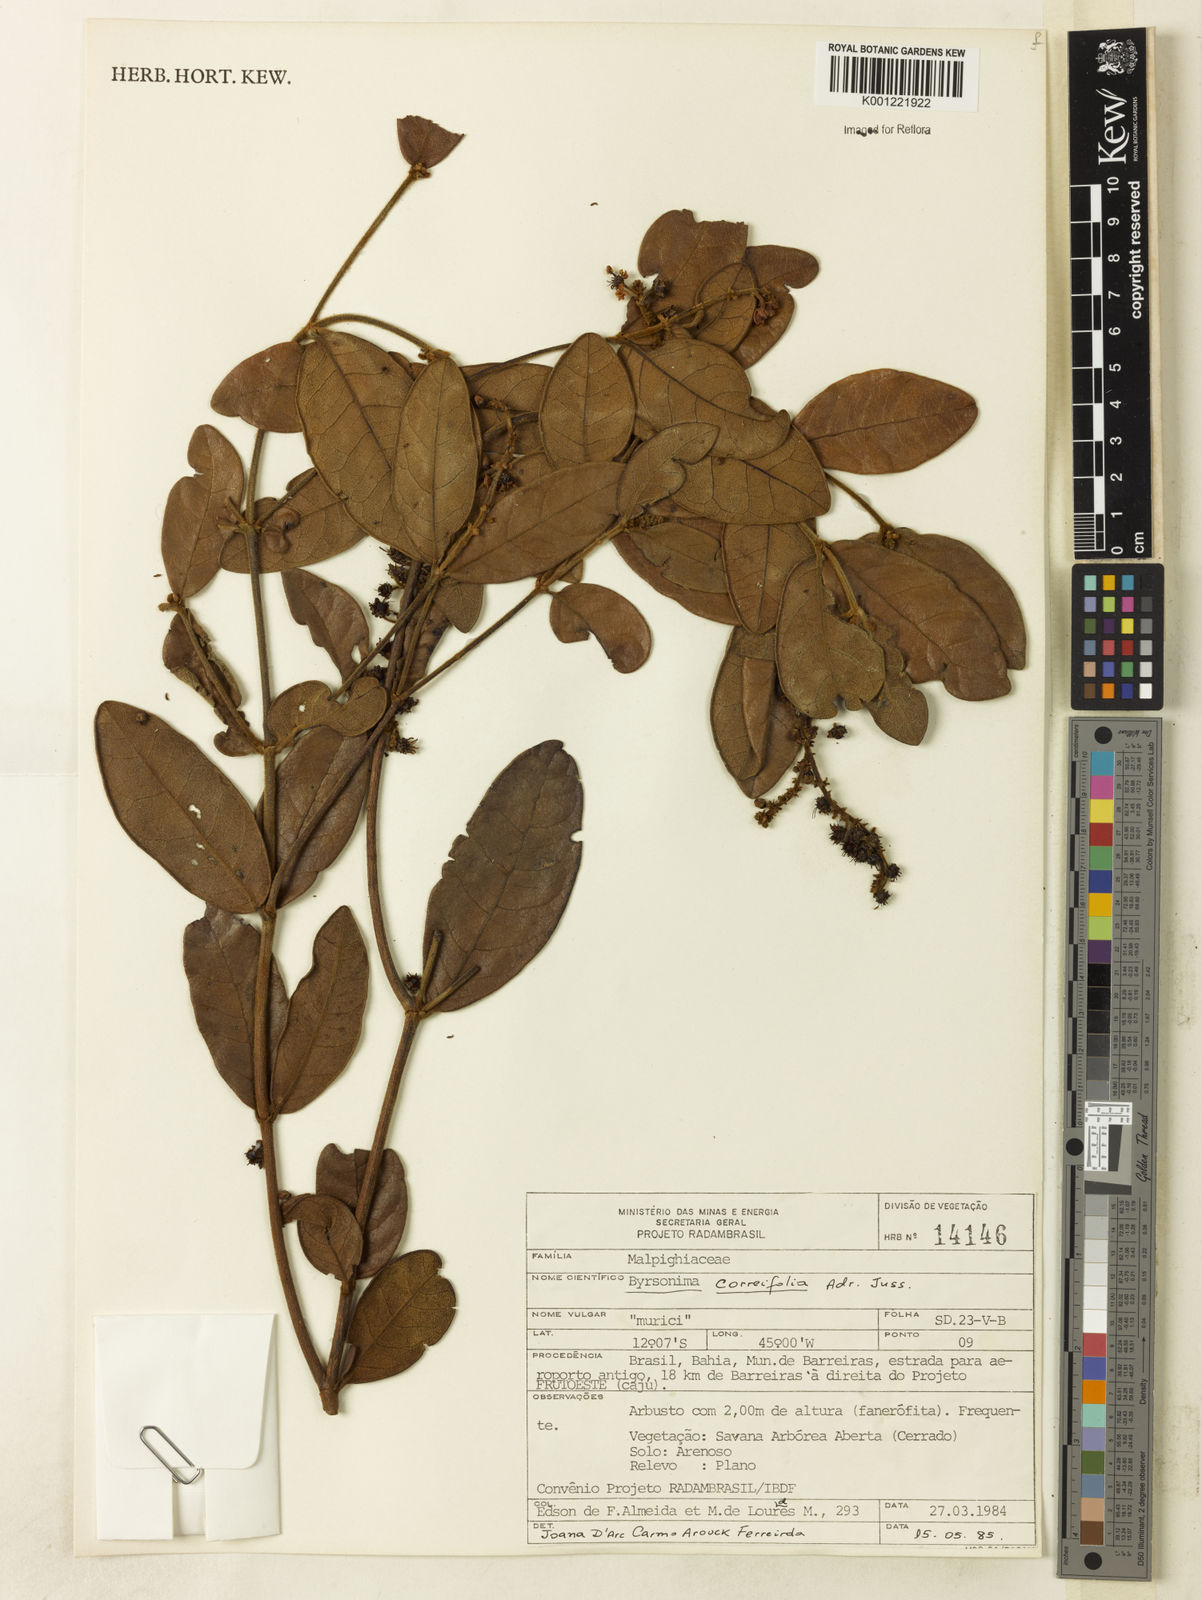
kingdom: Plantae
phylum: Tracheophyta
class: Magnoliopsida
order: Malpighiales
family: Malpighiaceae
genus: Byrsonima
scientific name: Byrsonima correifolia
